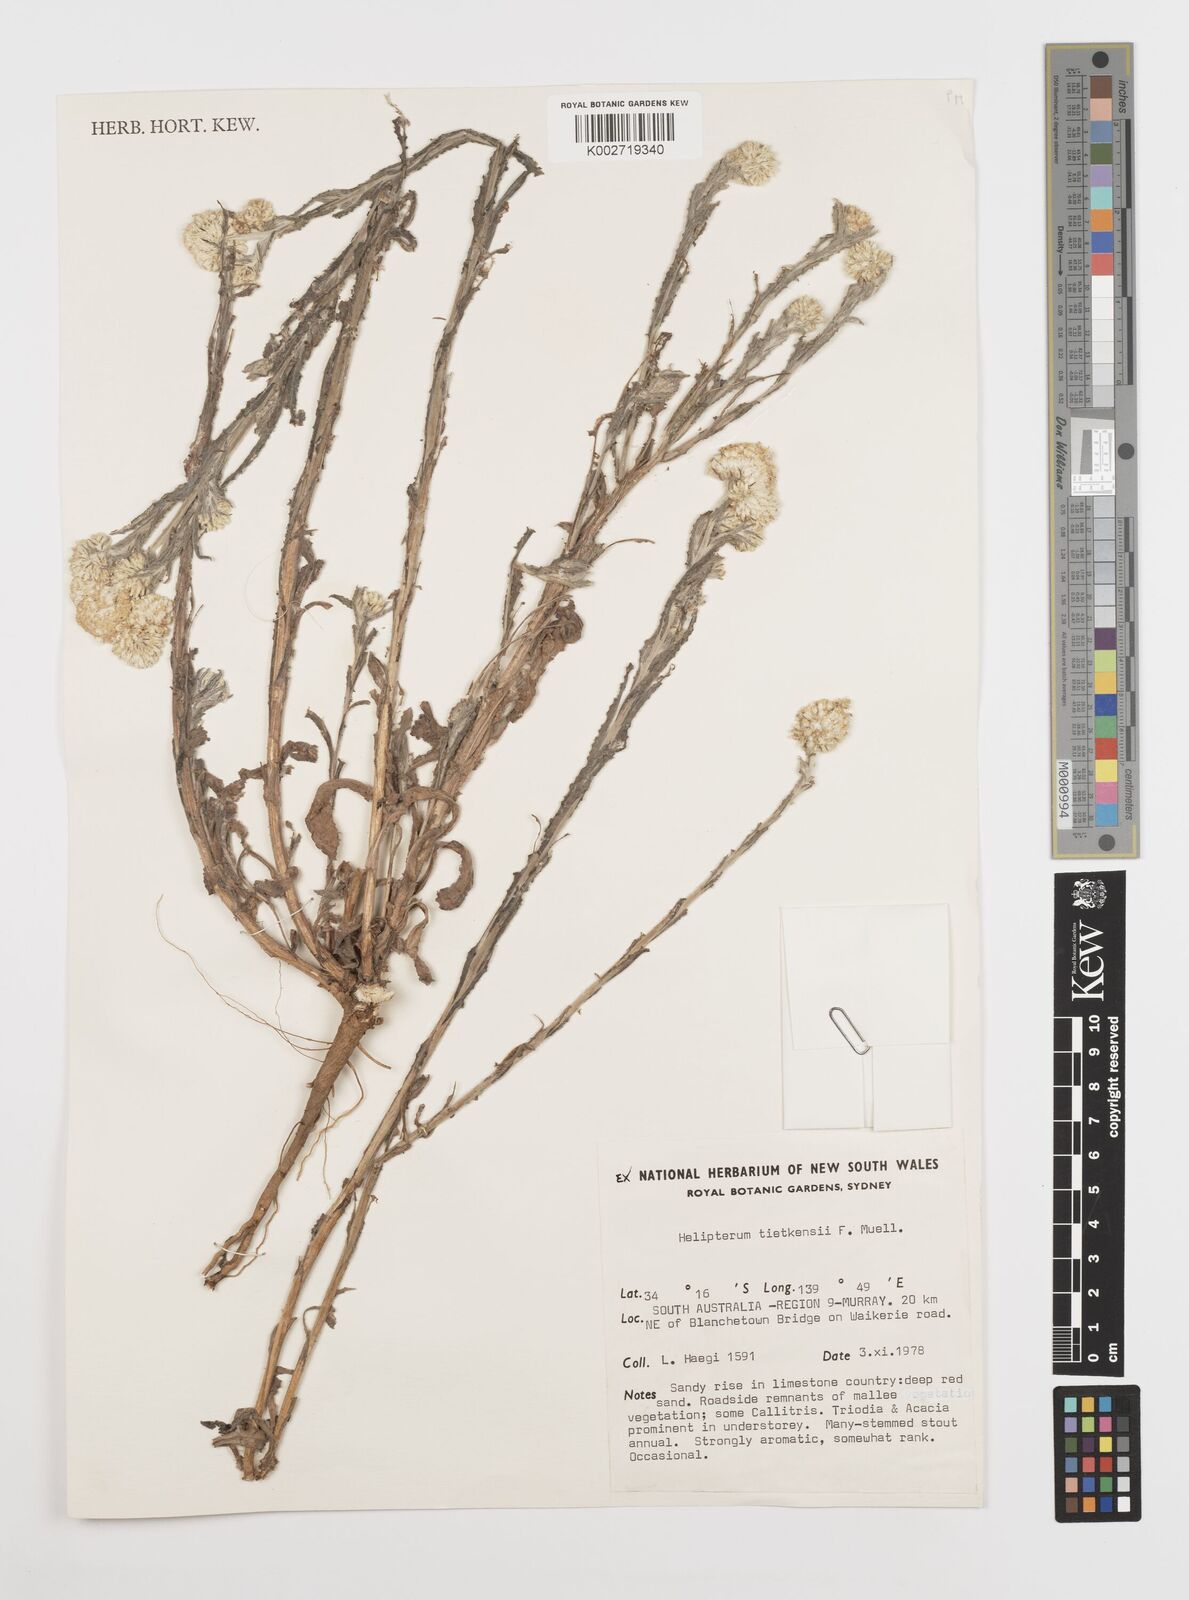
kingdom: Plantae
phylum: Tracheophyta
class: Magnoliopsida
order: Asterales
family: Asteraceae
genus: Rhodanthe
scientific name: Rhodanthe tietkensii
